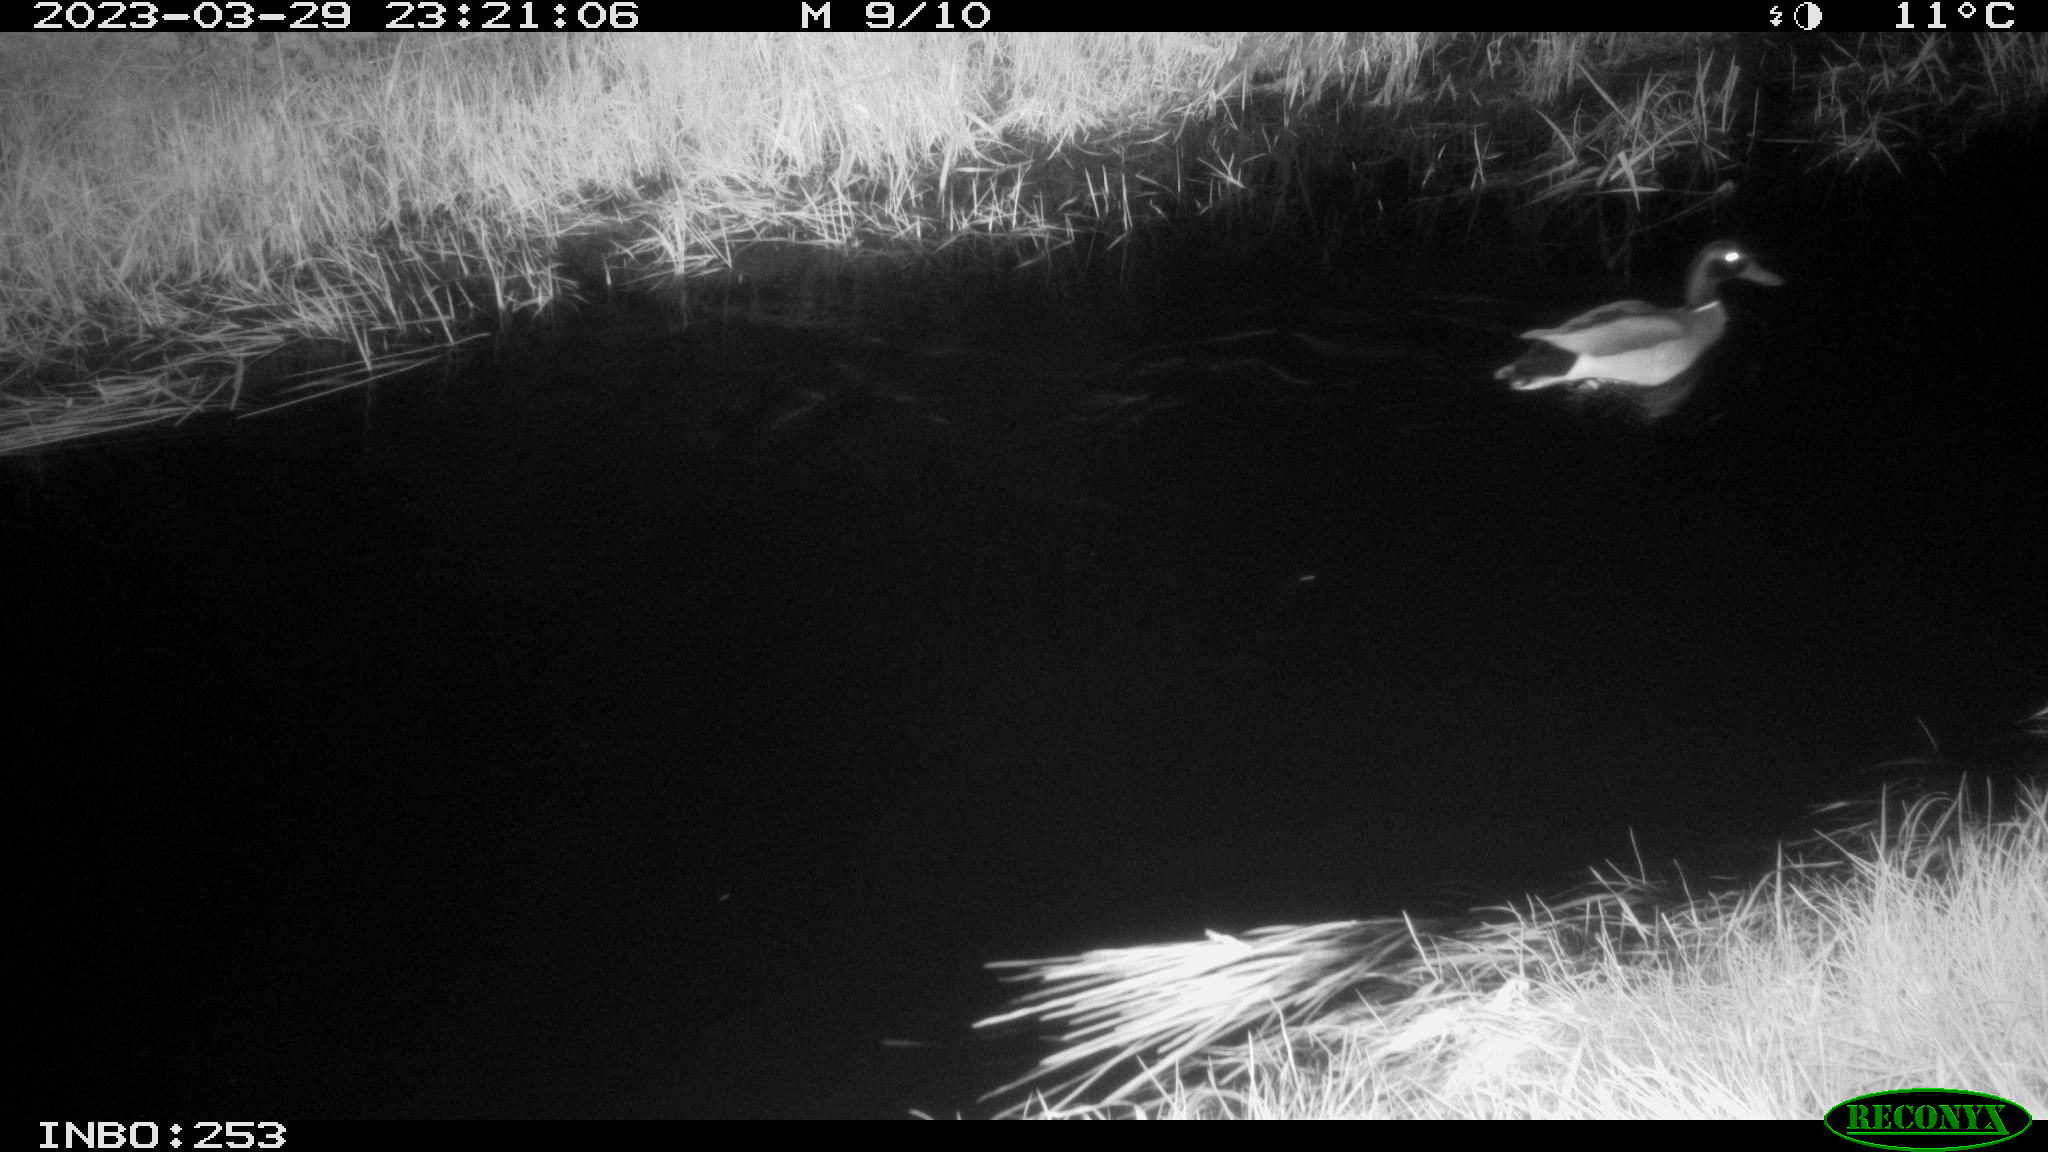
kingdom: Animalia
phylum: Chordata
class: Aves
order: Anseriformes
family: Anatidae
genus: Anas
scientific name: Anas
